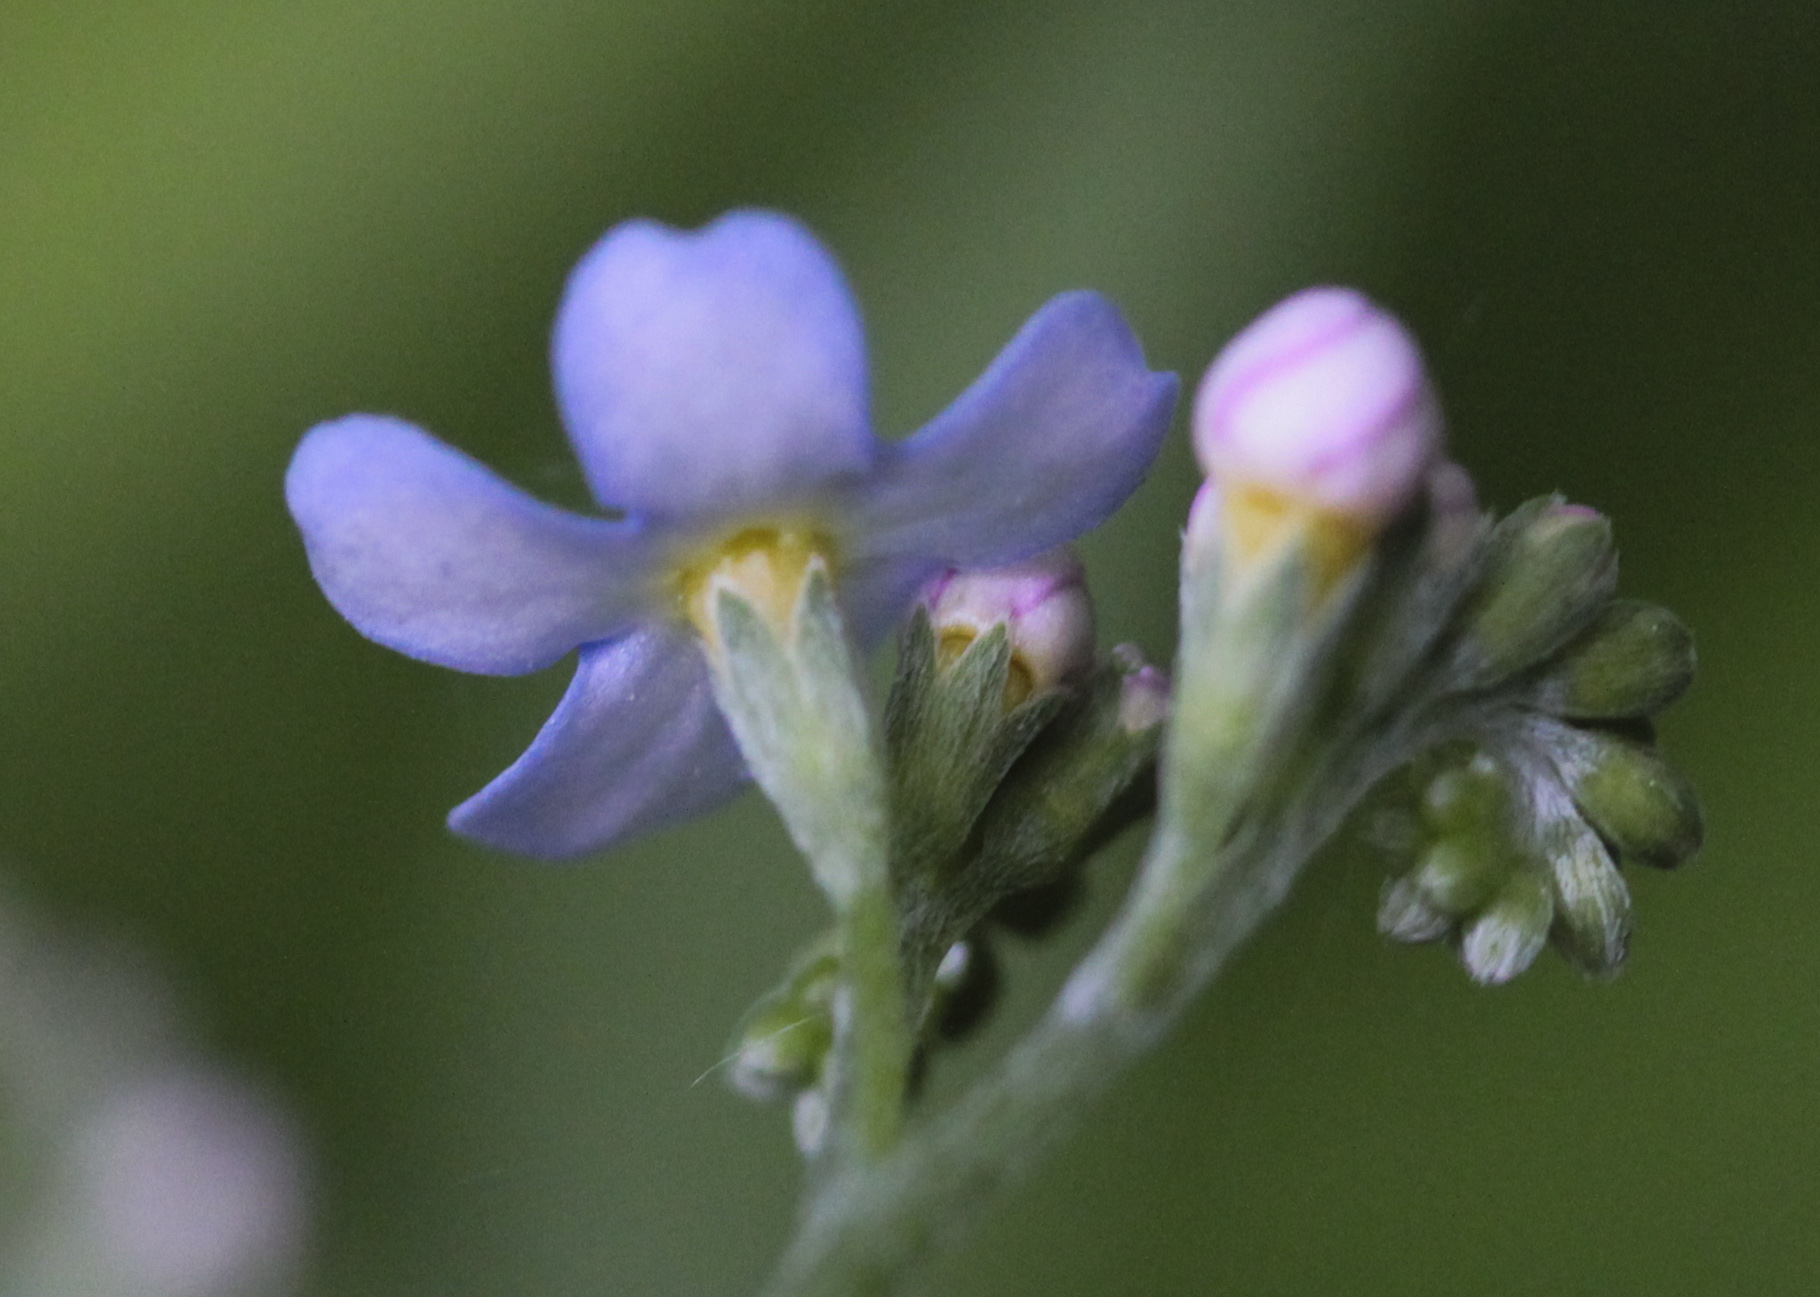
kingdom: Plantae
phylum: Tracheophyta
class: Magnoliopsida
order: Boraginales
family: Boraginaceae
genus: Myosotis
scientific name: Myosotis scorpioides
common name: Water forget-me-not
